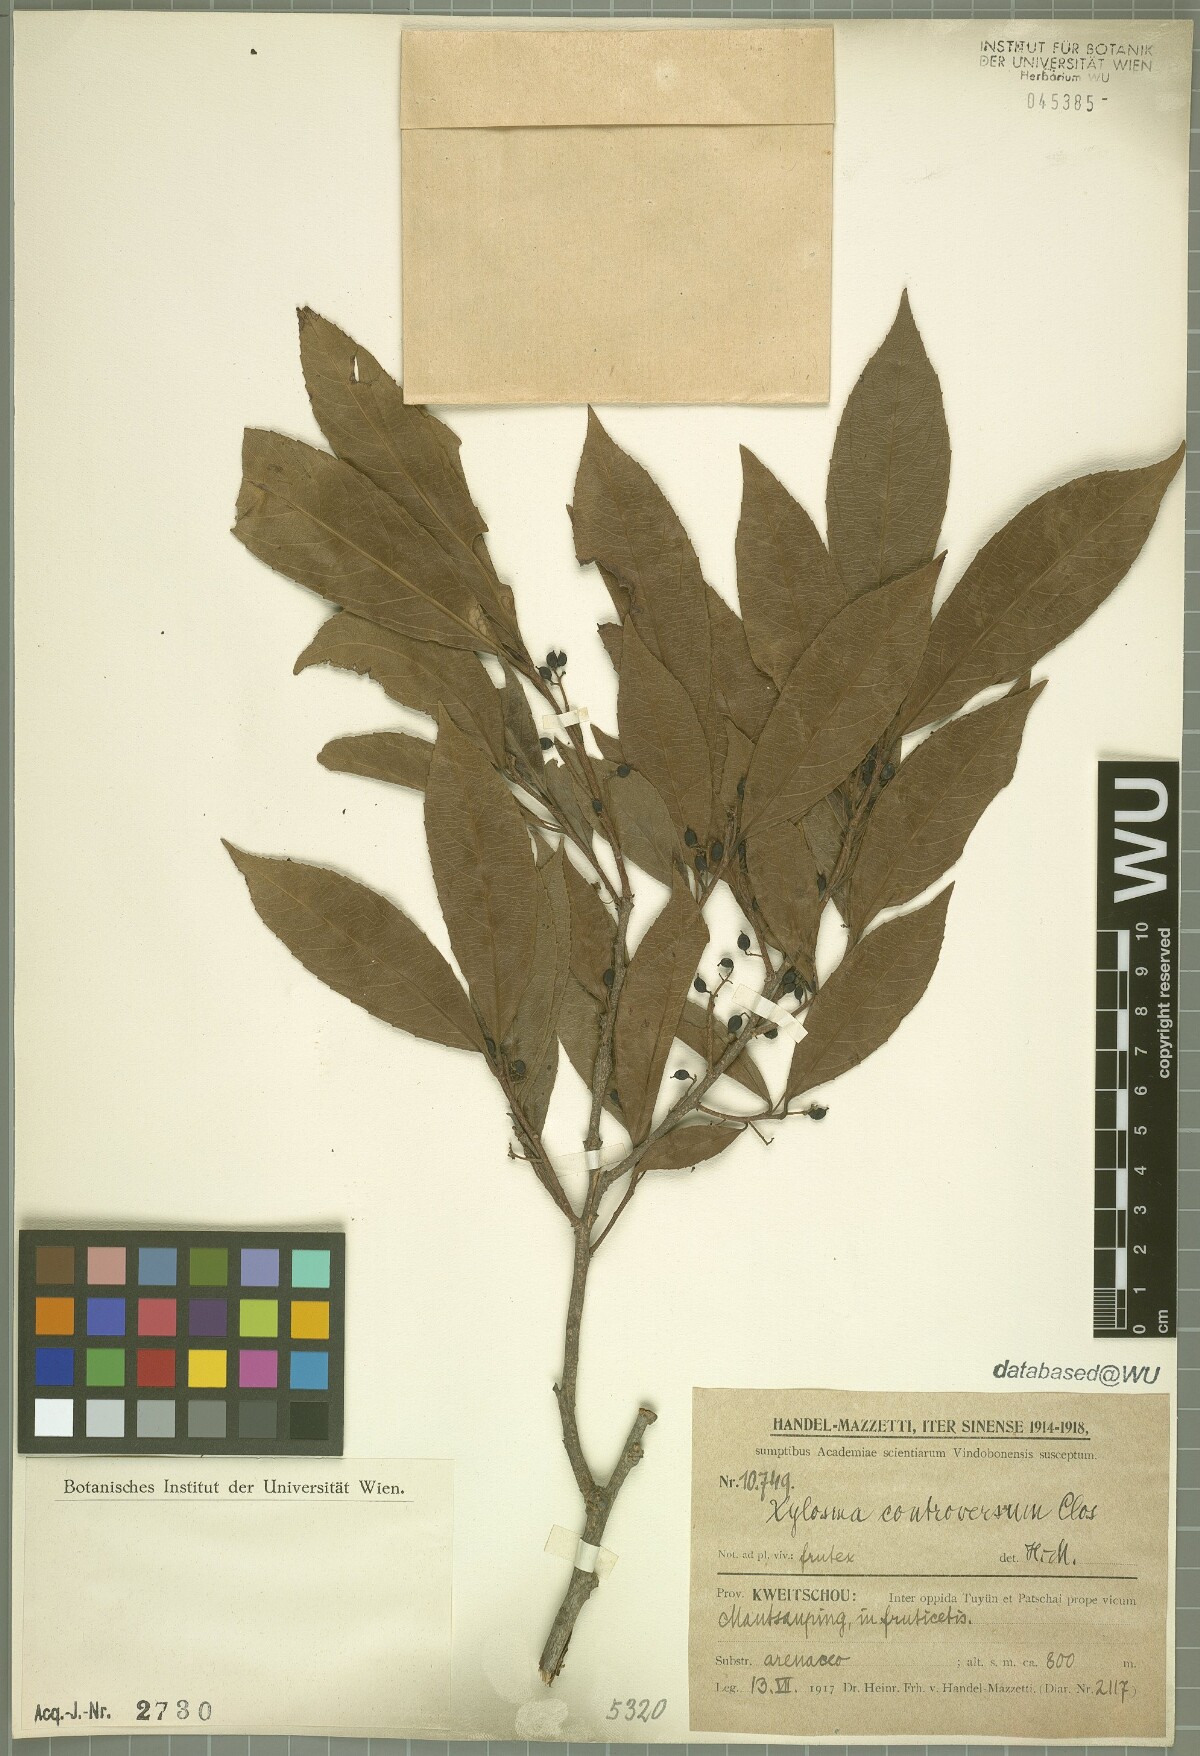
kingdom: Plantae
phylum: Tracheophyta
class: Magnoliopsida
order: Malpighiales
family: Salicaceae
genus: Xylosma
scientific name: Xylosma controversa
